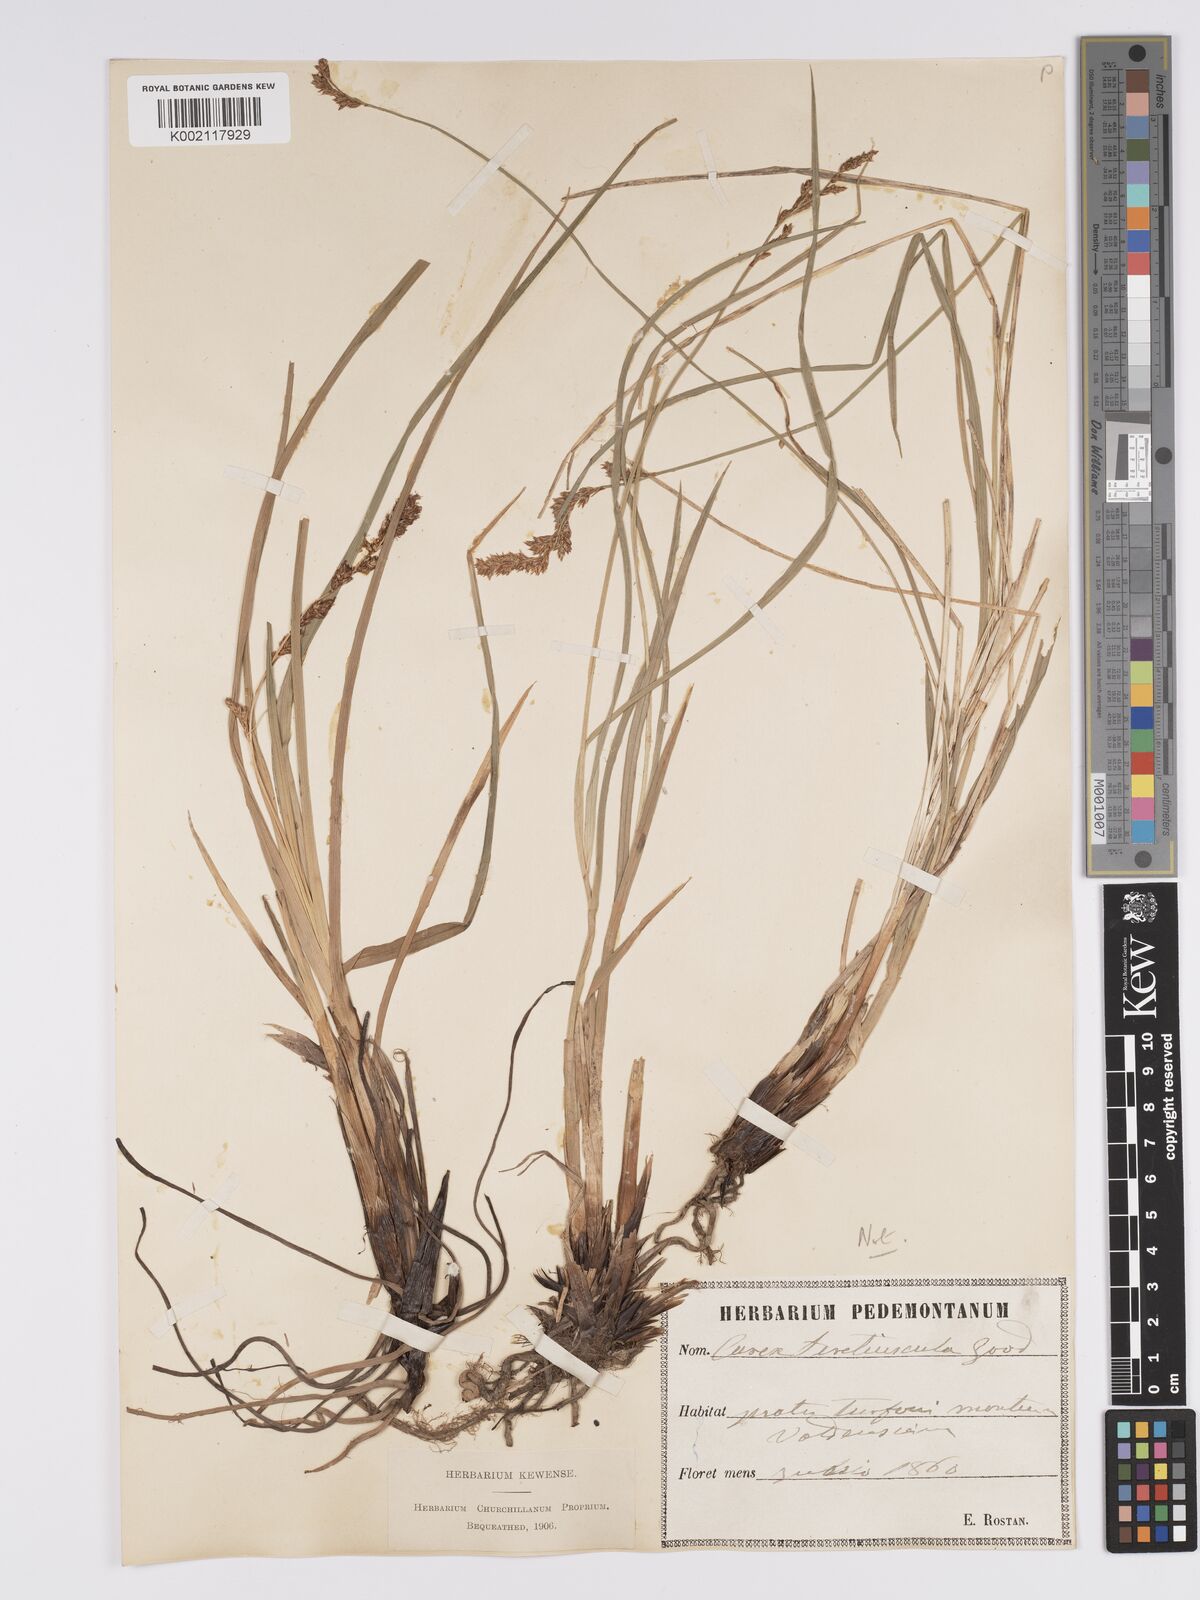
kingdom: Plantae
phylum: Tracheophyta
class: Liliopsida
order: Poales
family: Cyperaceae
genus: Carex
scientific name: Carex diandra
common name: Lesser tussock-sedge
